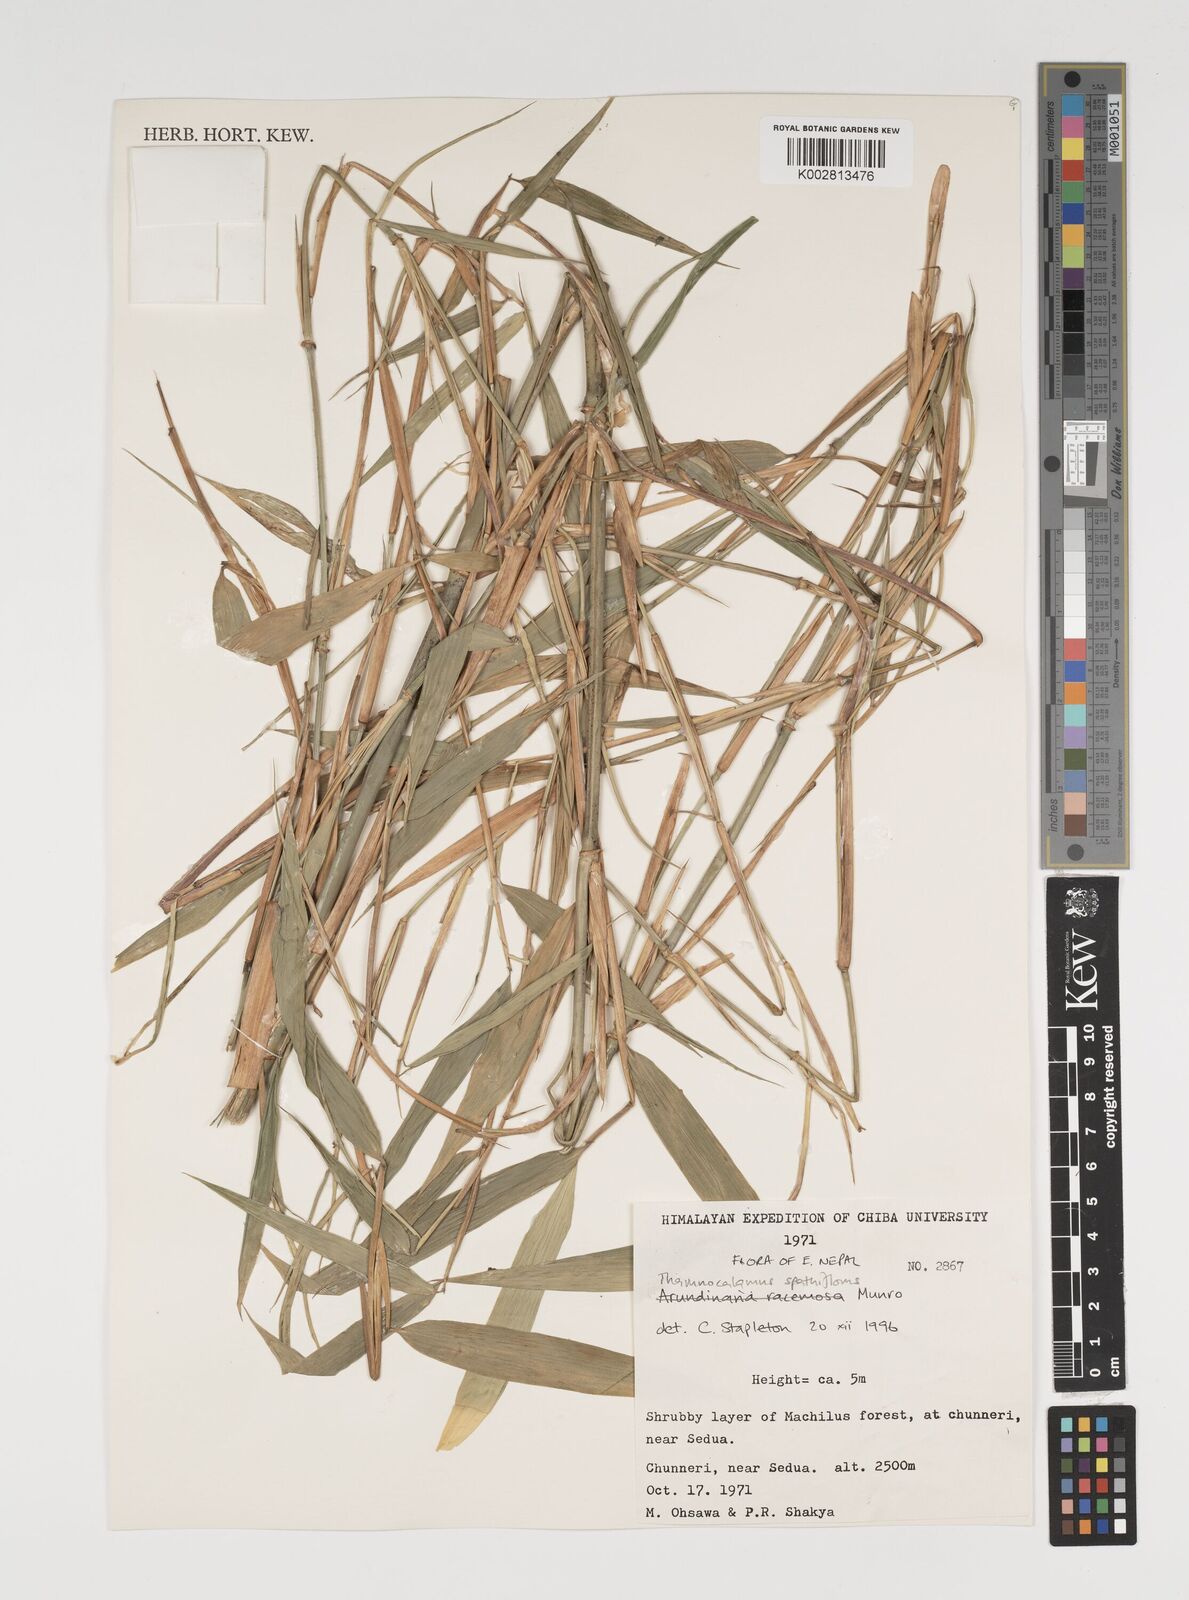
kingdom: Plantae
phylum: Tracheophyta
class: Liliopsida
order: Poales
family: Poaceae
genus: Thamnocalamus
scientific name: Thamnocalamus spathiflorus
